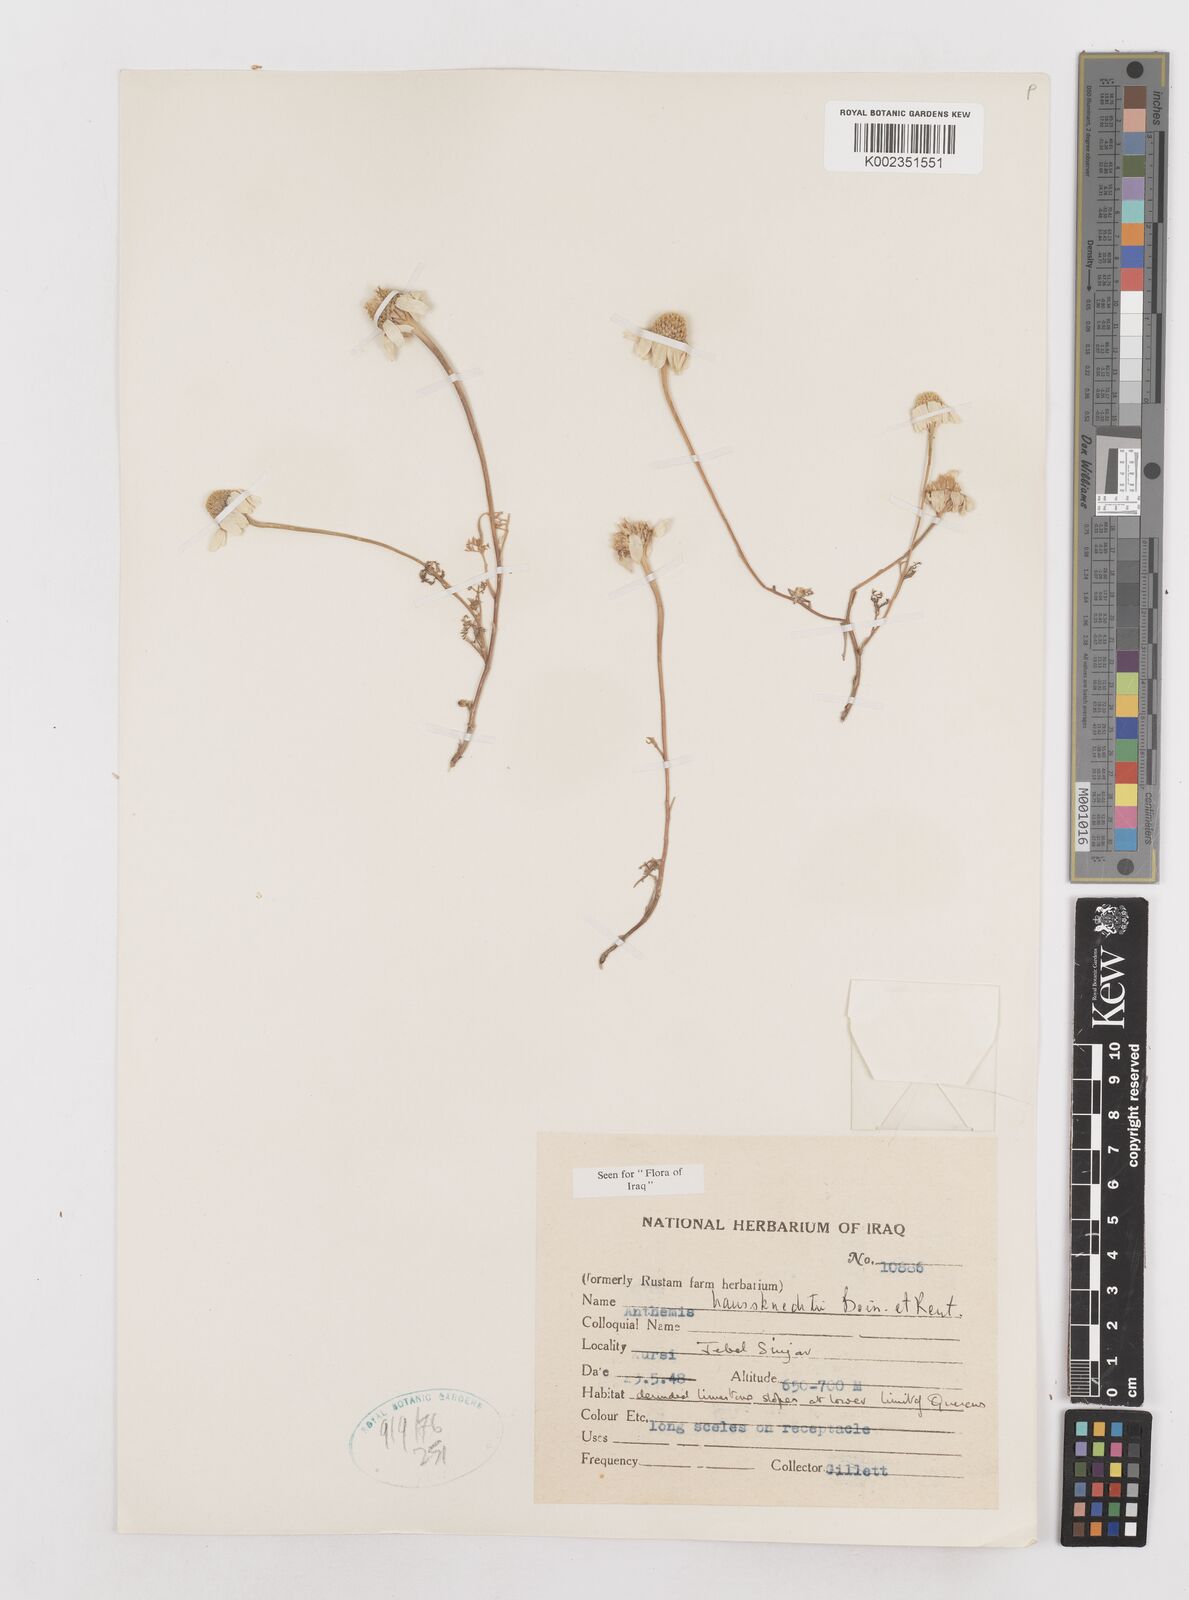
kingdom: Plantae
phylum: Tracheophyta
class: Magnoliopsida
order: Asterales
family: Asteraceae
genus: Anthemis
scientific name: Anthemis haussknechtii
